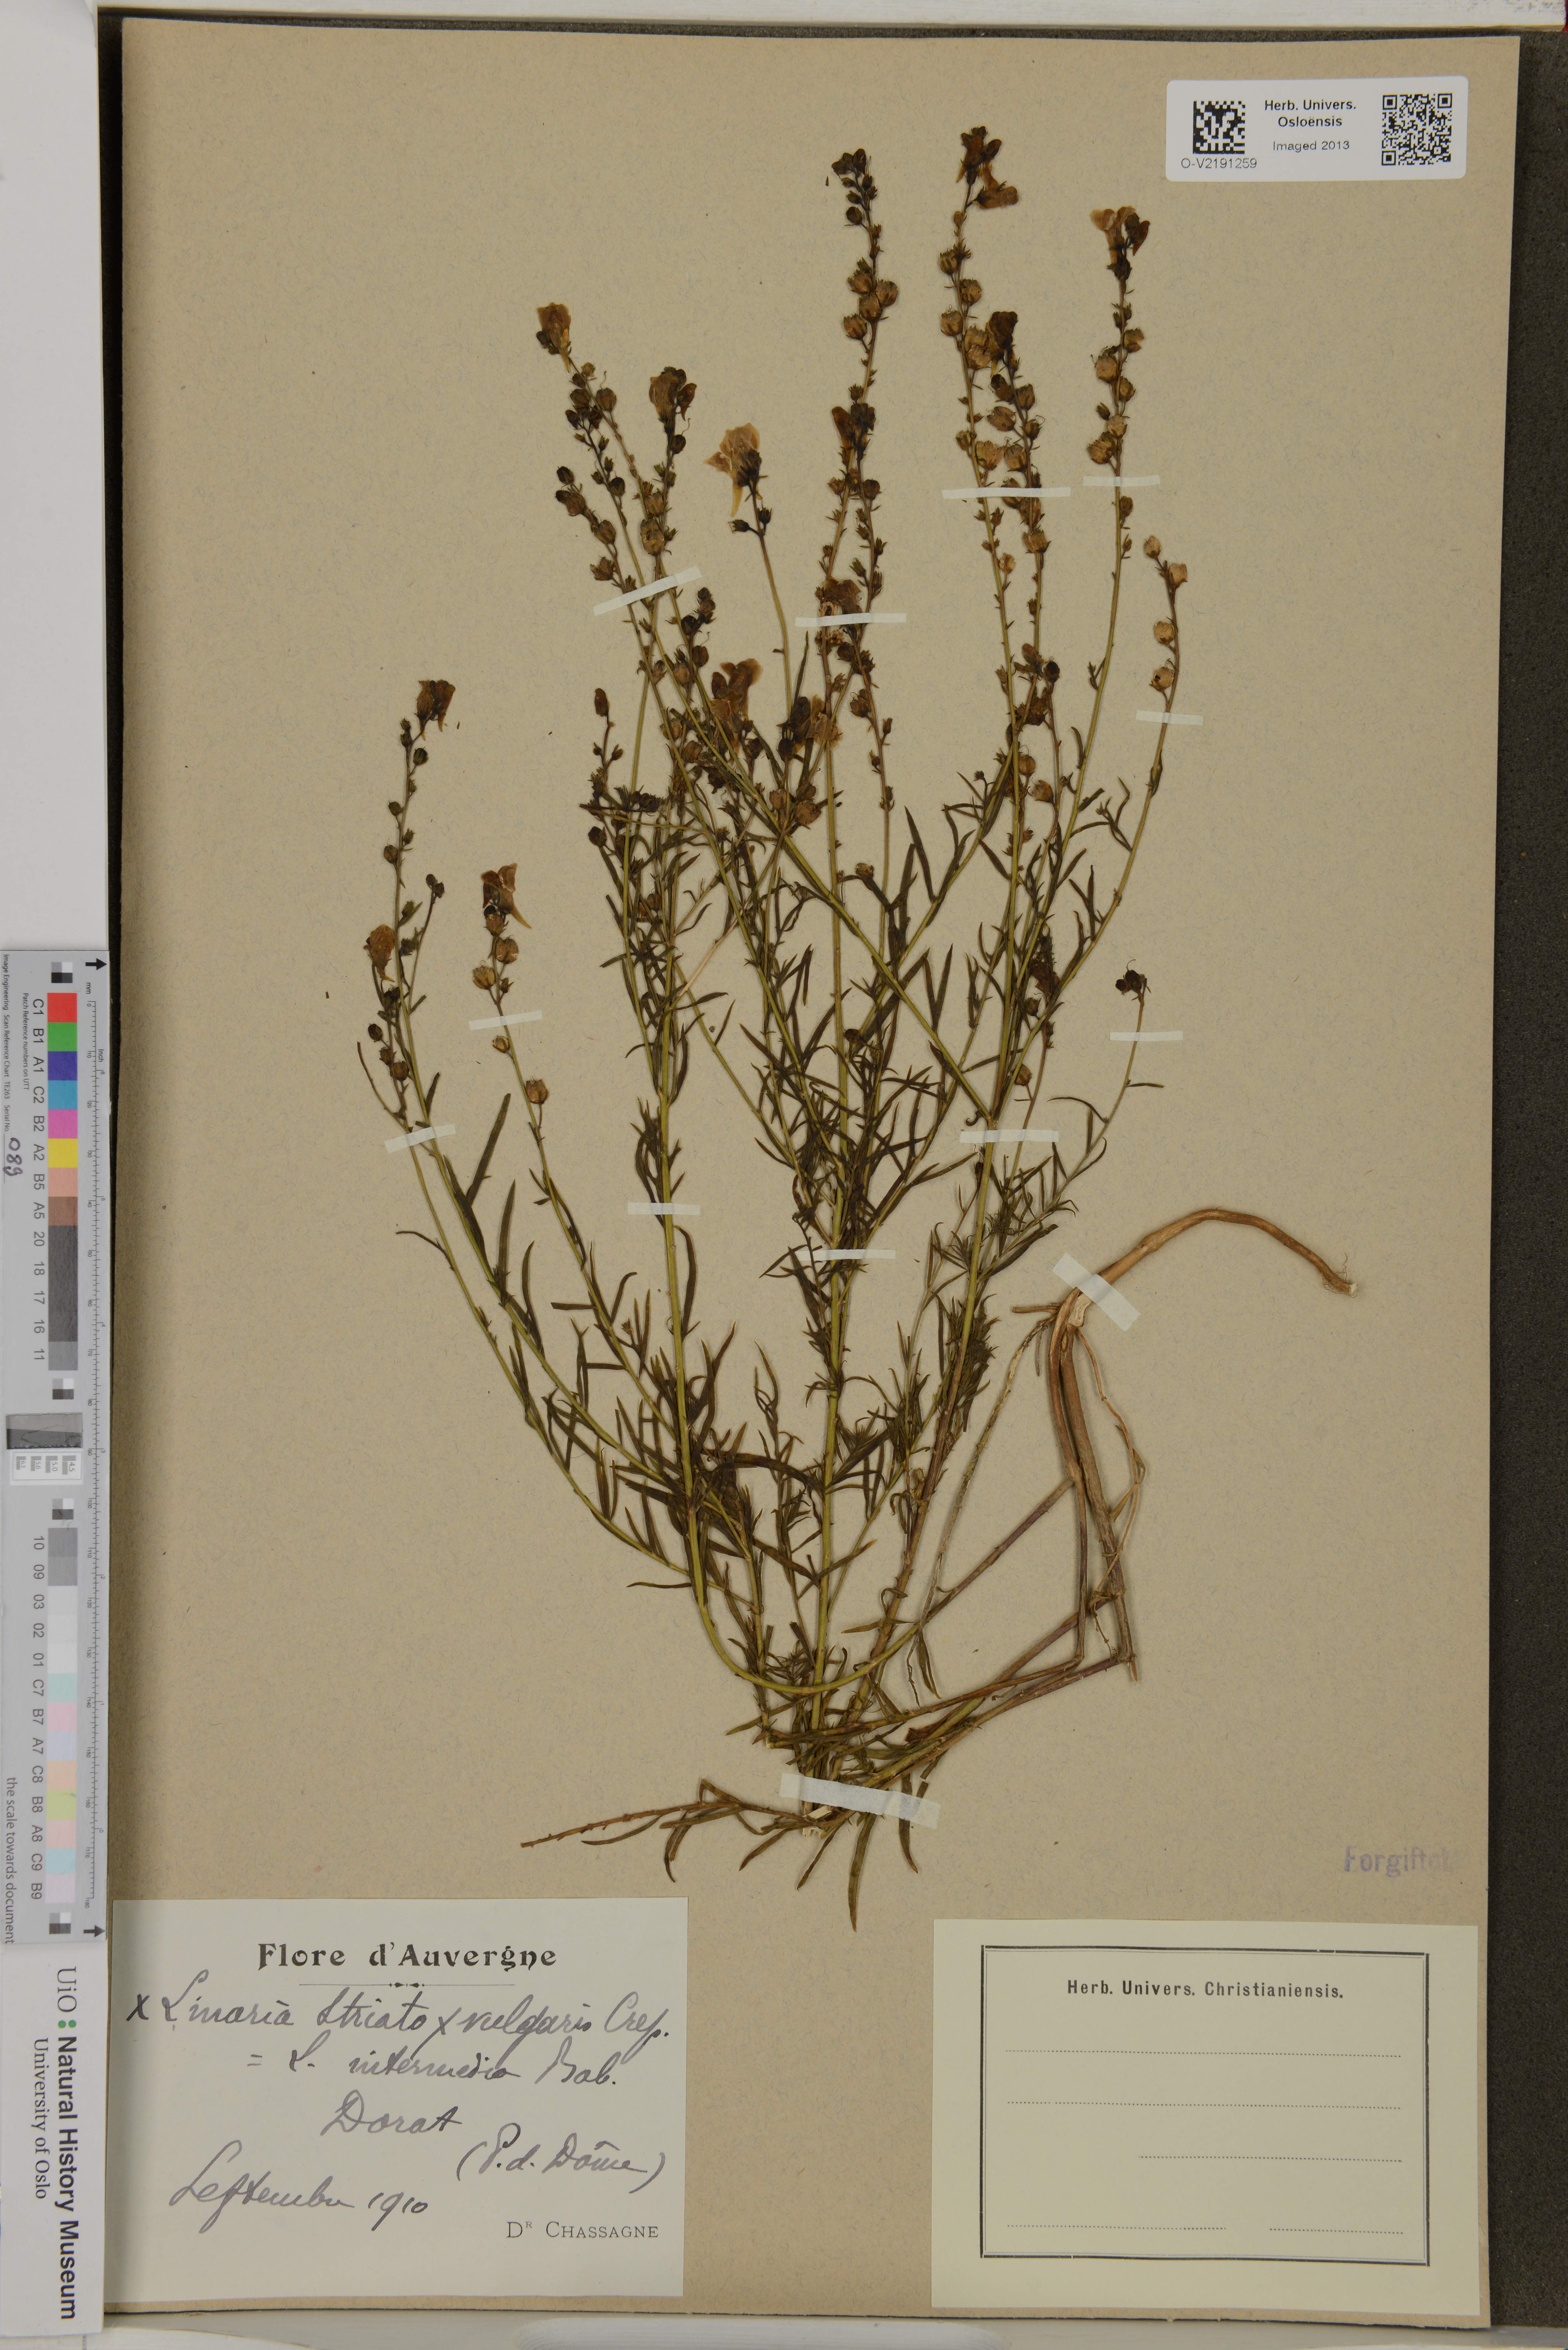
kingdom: Plantae
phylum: Tracheophyta
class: Magnoliopsida
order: Lamiales
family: Plantaginaceae
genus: Linaria
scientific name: Linaria repens
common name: Pale toadflax
